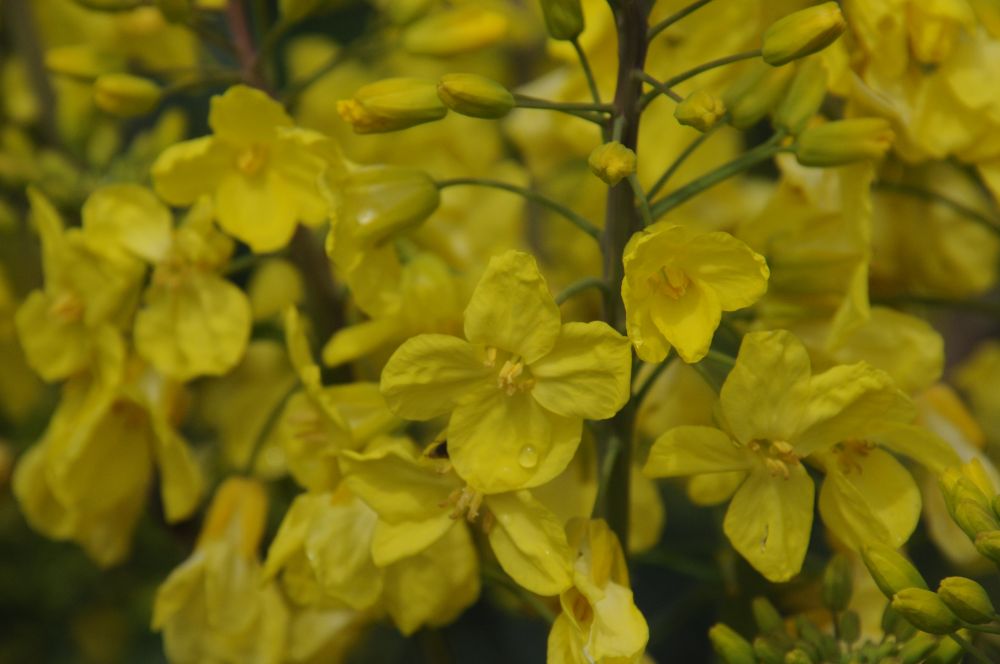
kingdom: Plantae
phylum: Tracheophyta
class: Magnoliopsida
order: Brassicales
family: Brassicaceae
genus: Brassica
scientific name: Brassica oleracea
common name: Cabbage
